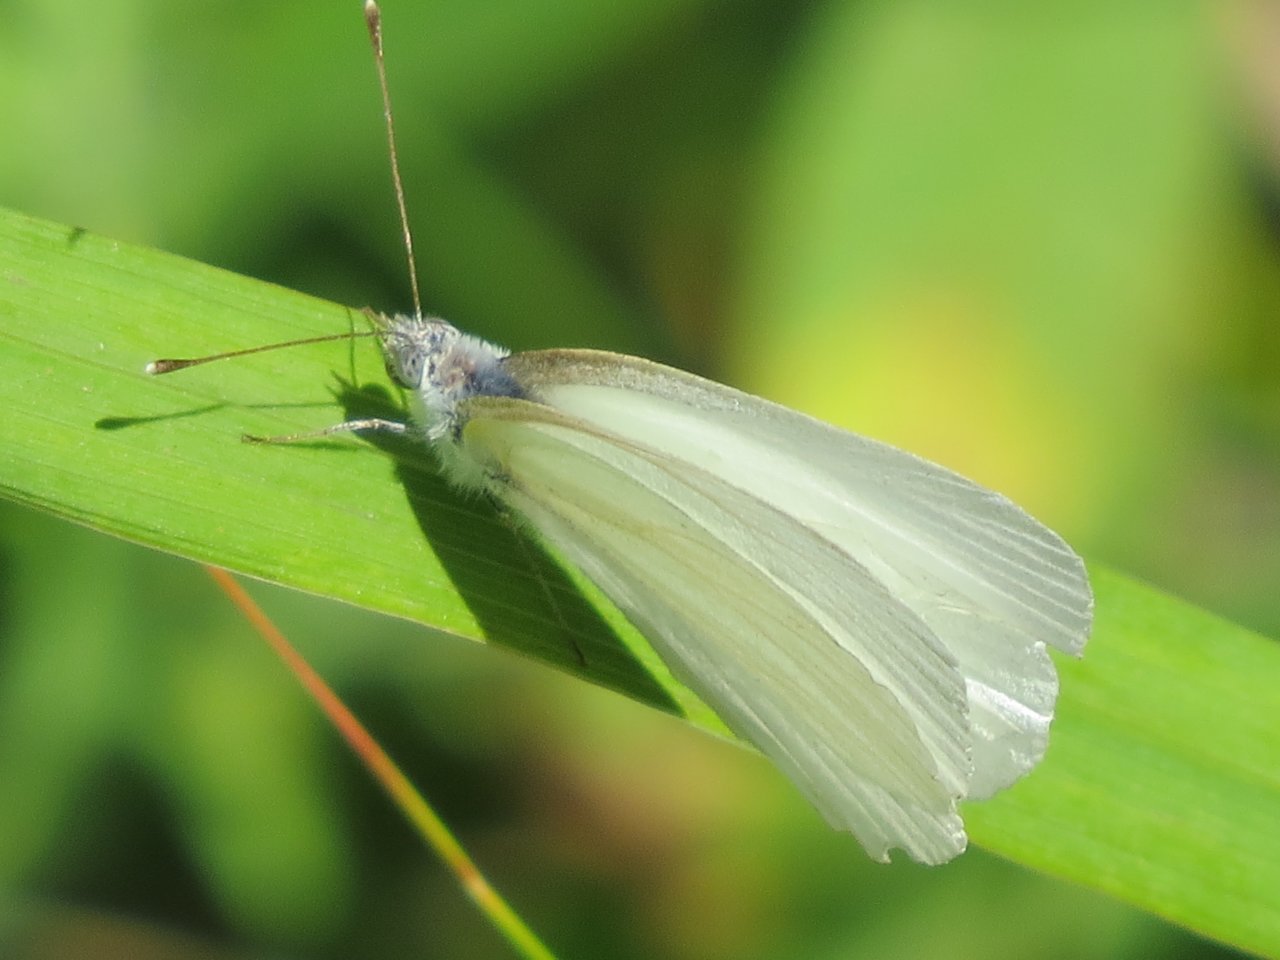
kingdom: Animalia
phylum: Arthropoda
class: Insecta
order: Lepidoptera
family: Pieridae
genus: Pieris
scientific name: Pieris oleracea
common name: Mustard White
